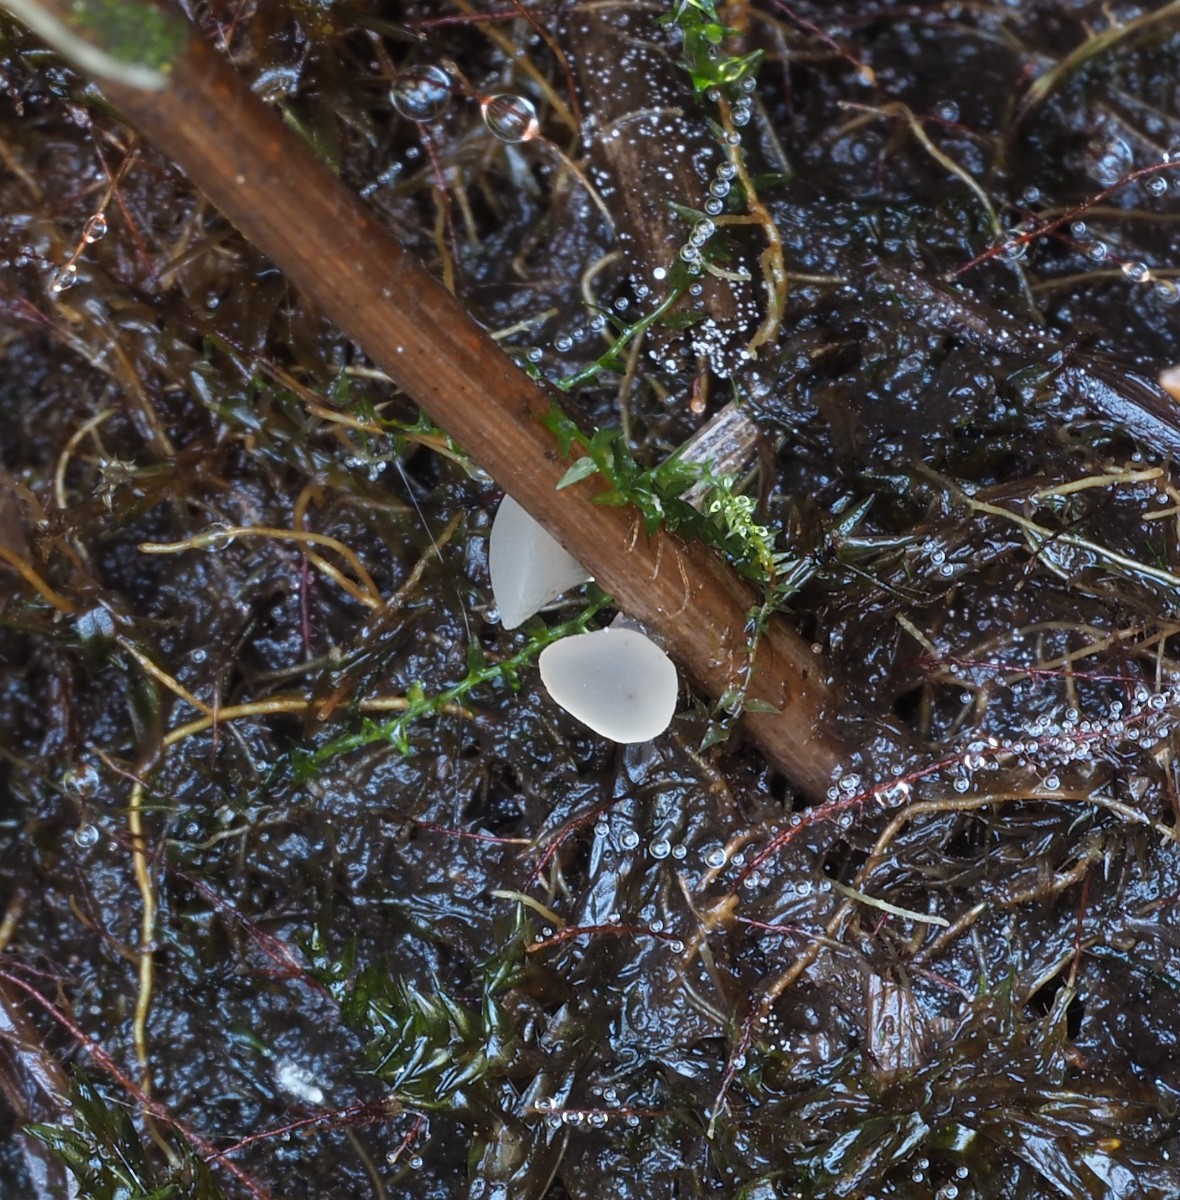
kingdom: Fungi
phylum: Ascomycota
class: Leotiomycetes
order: Helotiales
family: Gelatinodiscaceae
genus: Ombrophila
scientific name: Ombrophila pileata
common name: langstokket bævreskive
